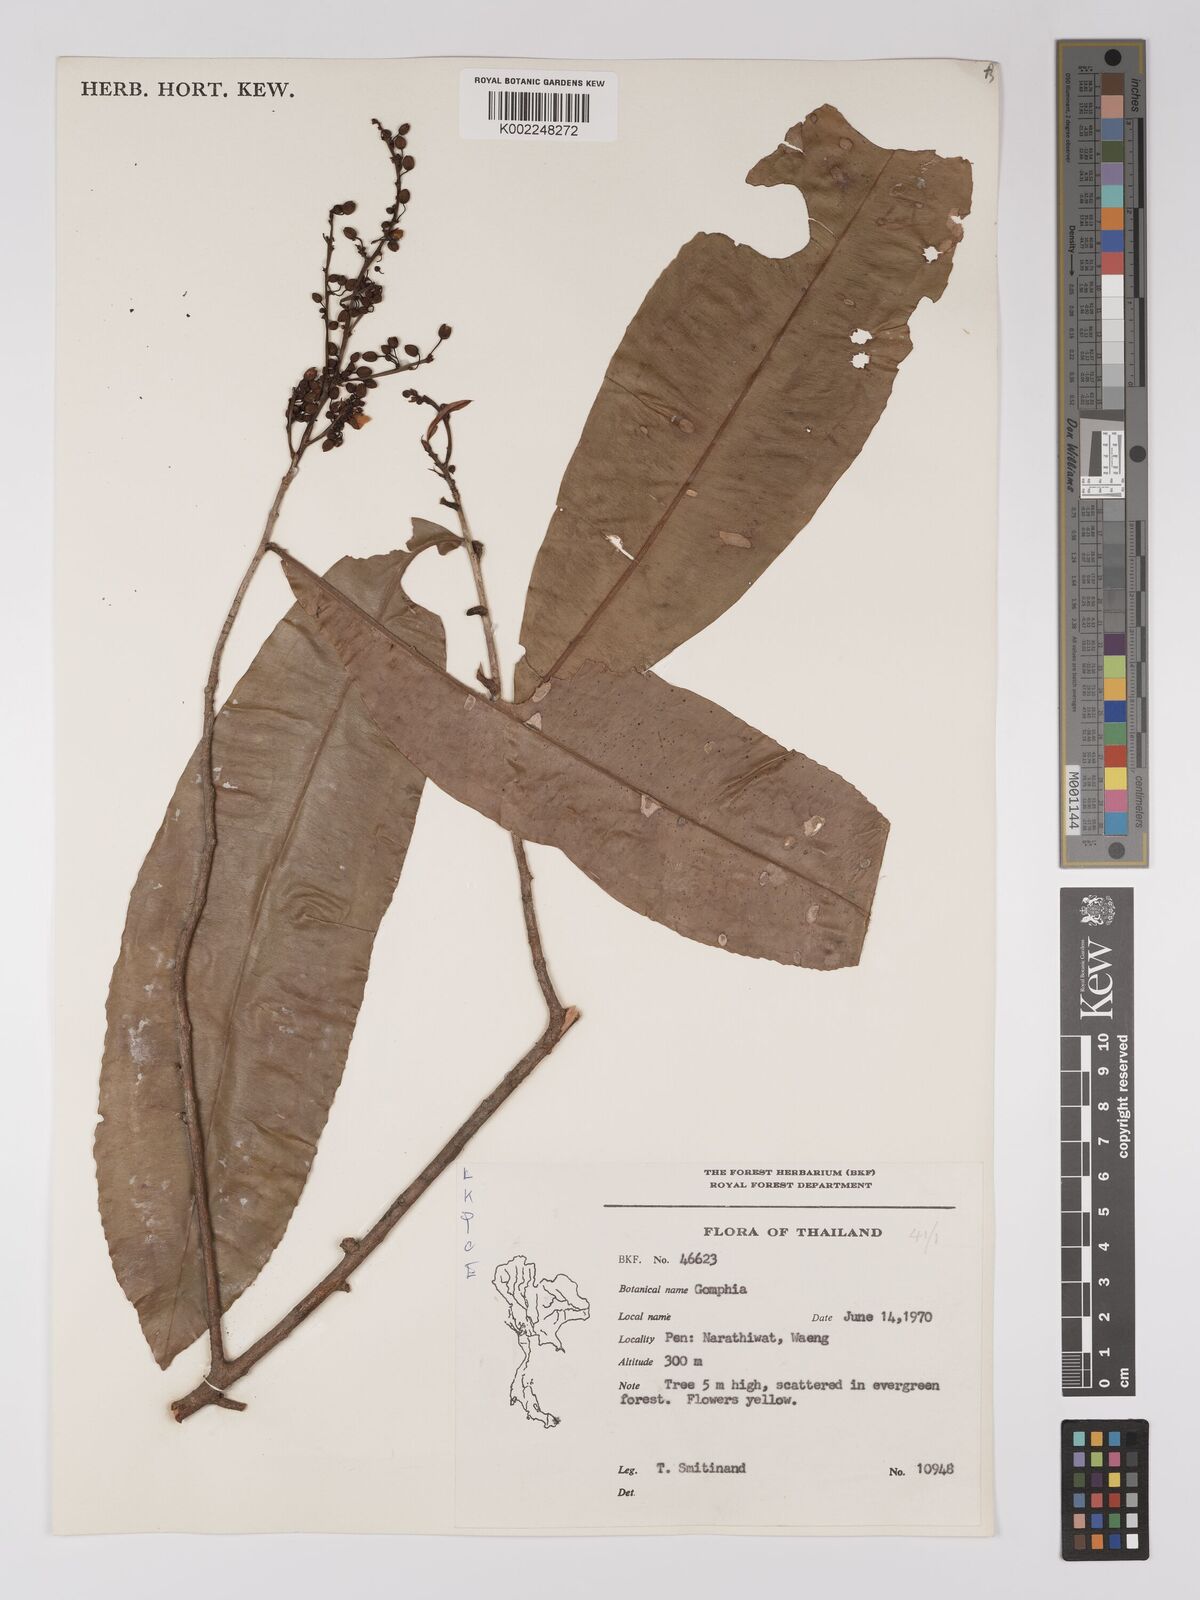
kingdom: Plantae
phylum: Tracheophyta
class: Magnoliopsida
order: Malpighiales
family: Ochnaceae
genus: Campylospermum
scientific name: Campylospermum
